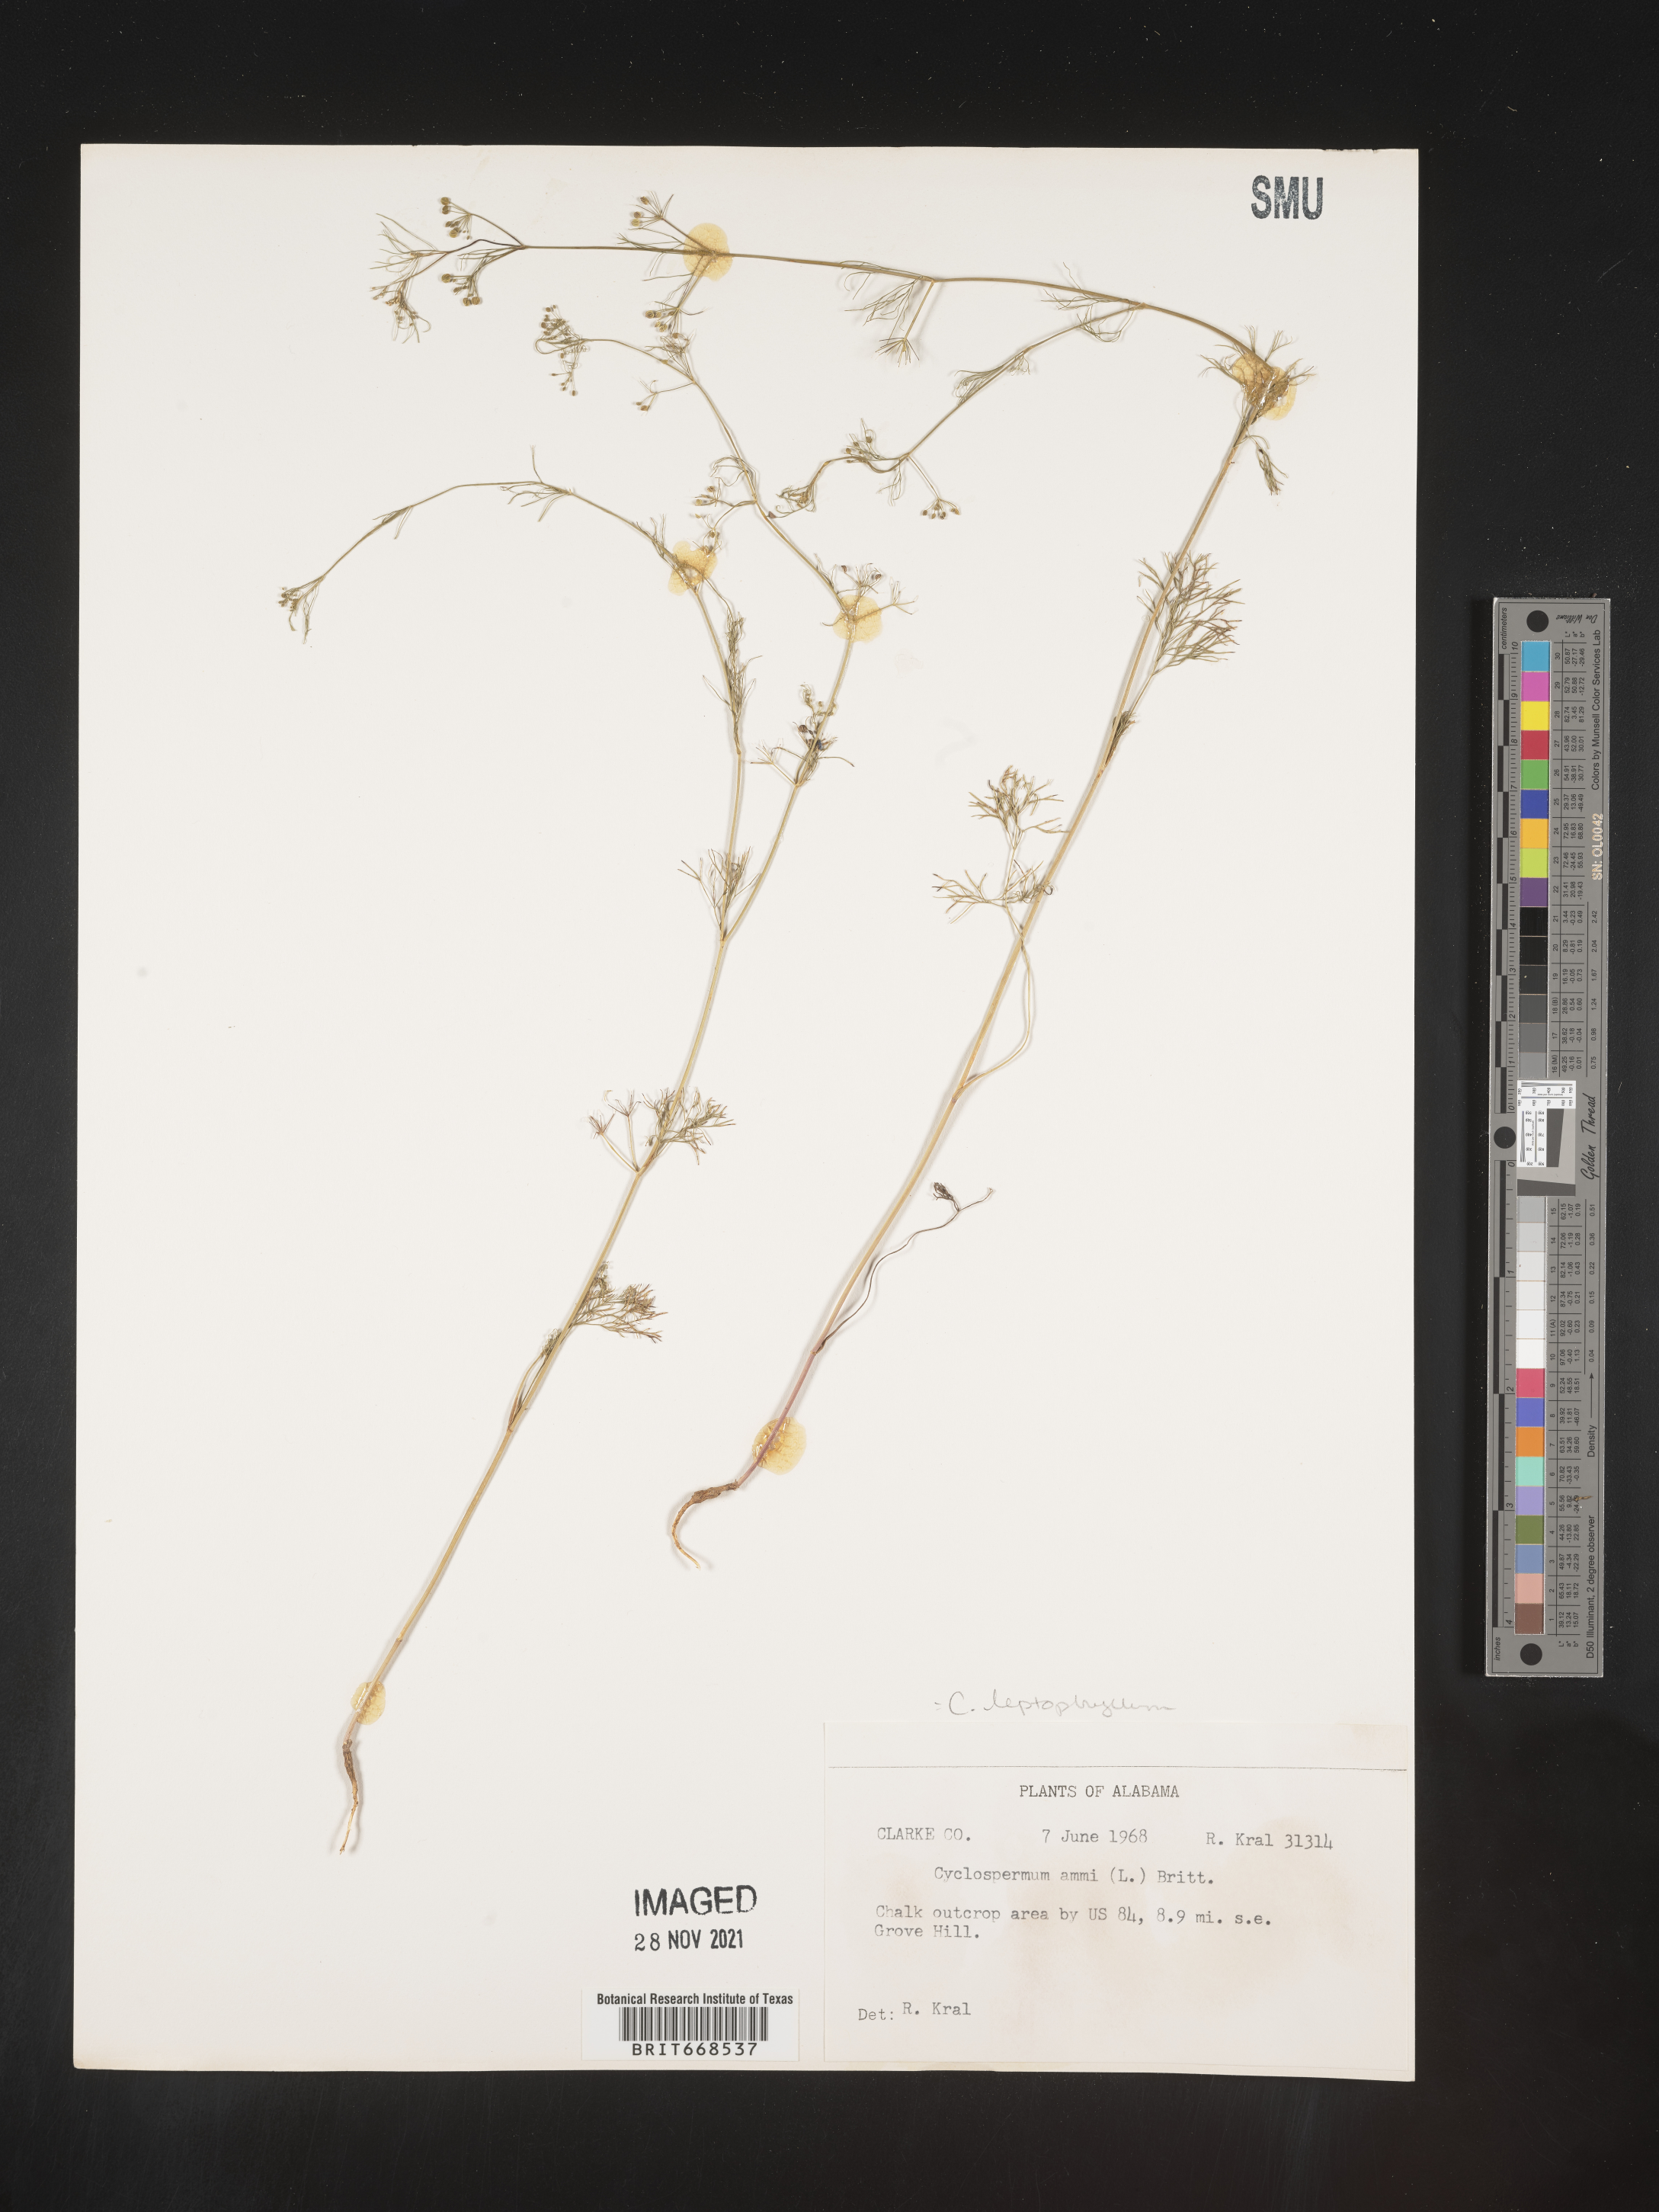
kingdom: Plantae
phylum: Tracheophyta
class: Magnoliopsida
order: Apiales
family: Apiaceae
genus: Cyclospermum
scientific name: Cyclospermum leptophyllum
